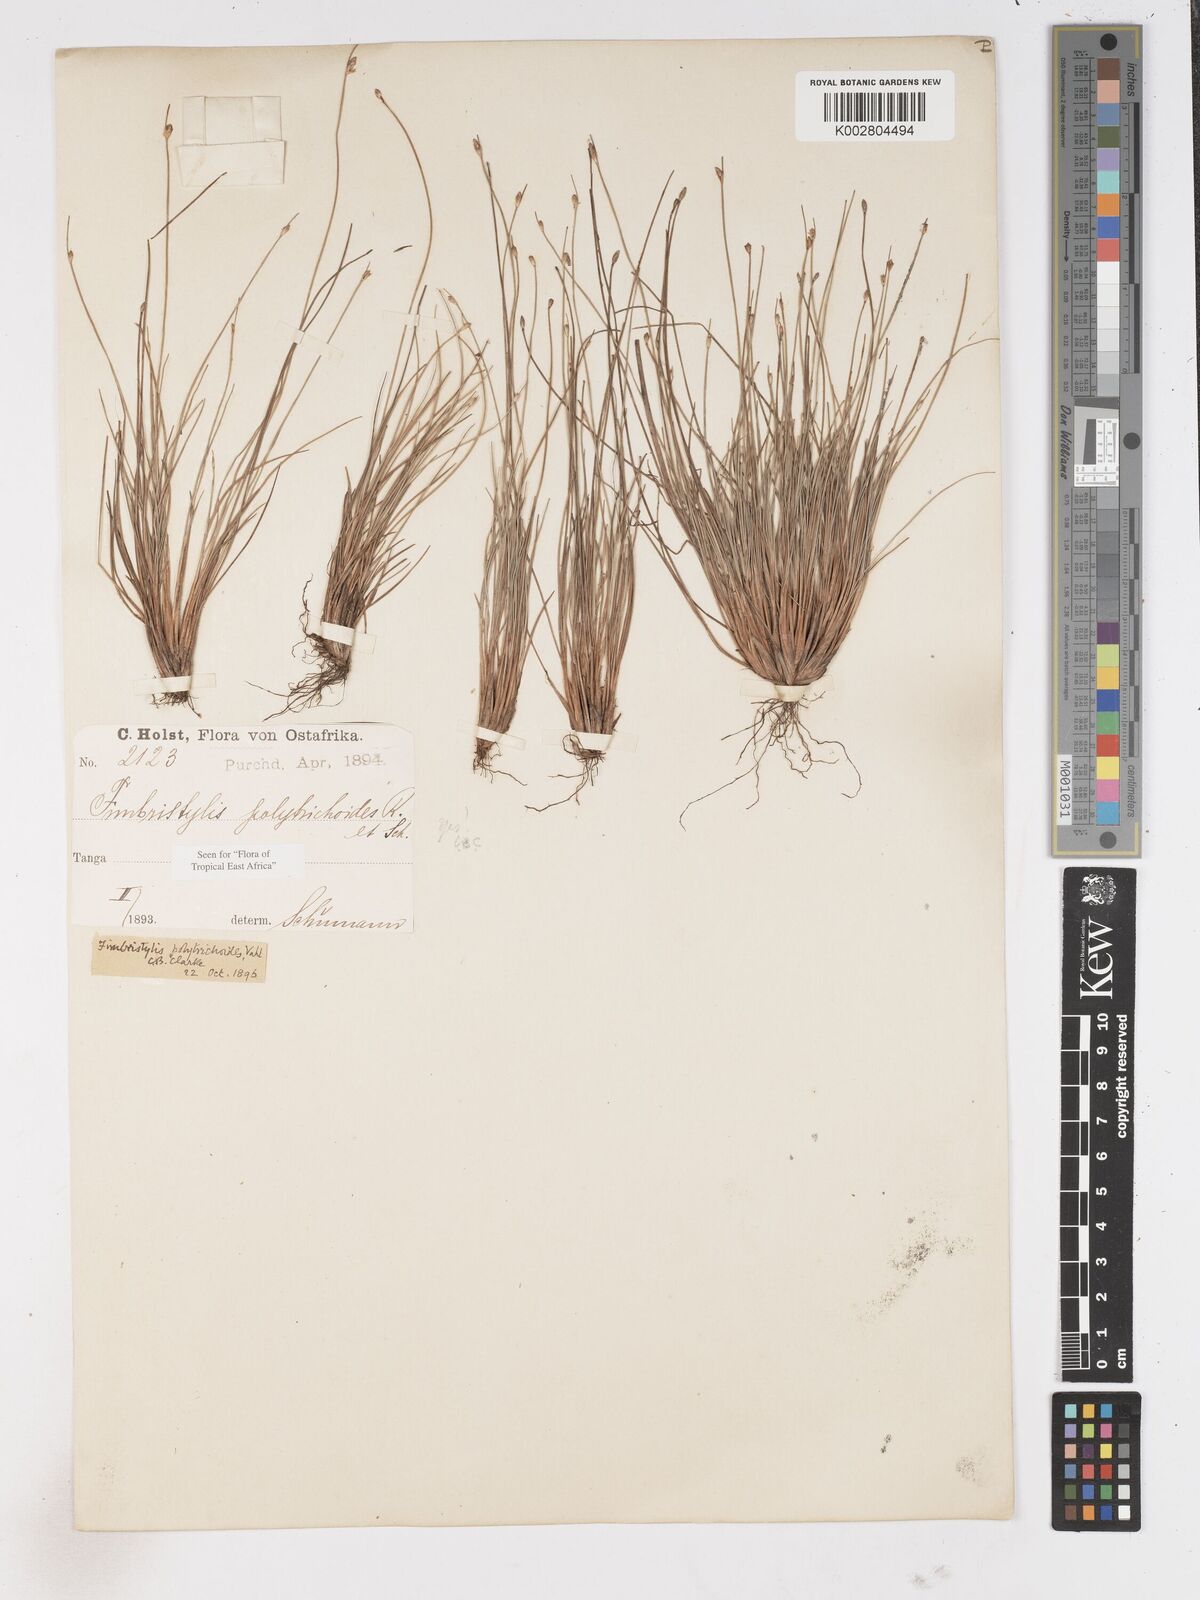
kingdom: Plantae
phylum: Tracheophyta
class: Liliopsida
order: Poales
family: Cyperaceae
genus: Fimbristylis
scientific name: Fimbristylis polytrichoides
